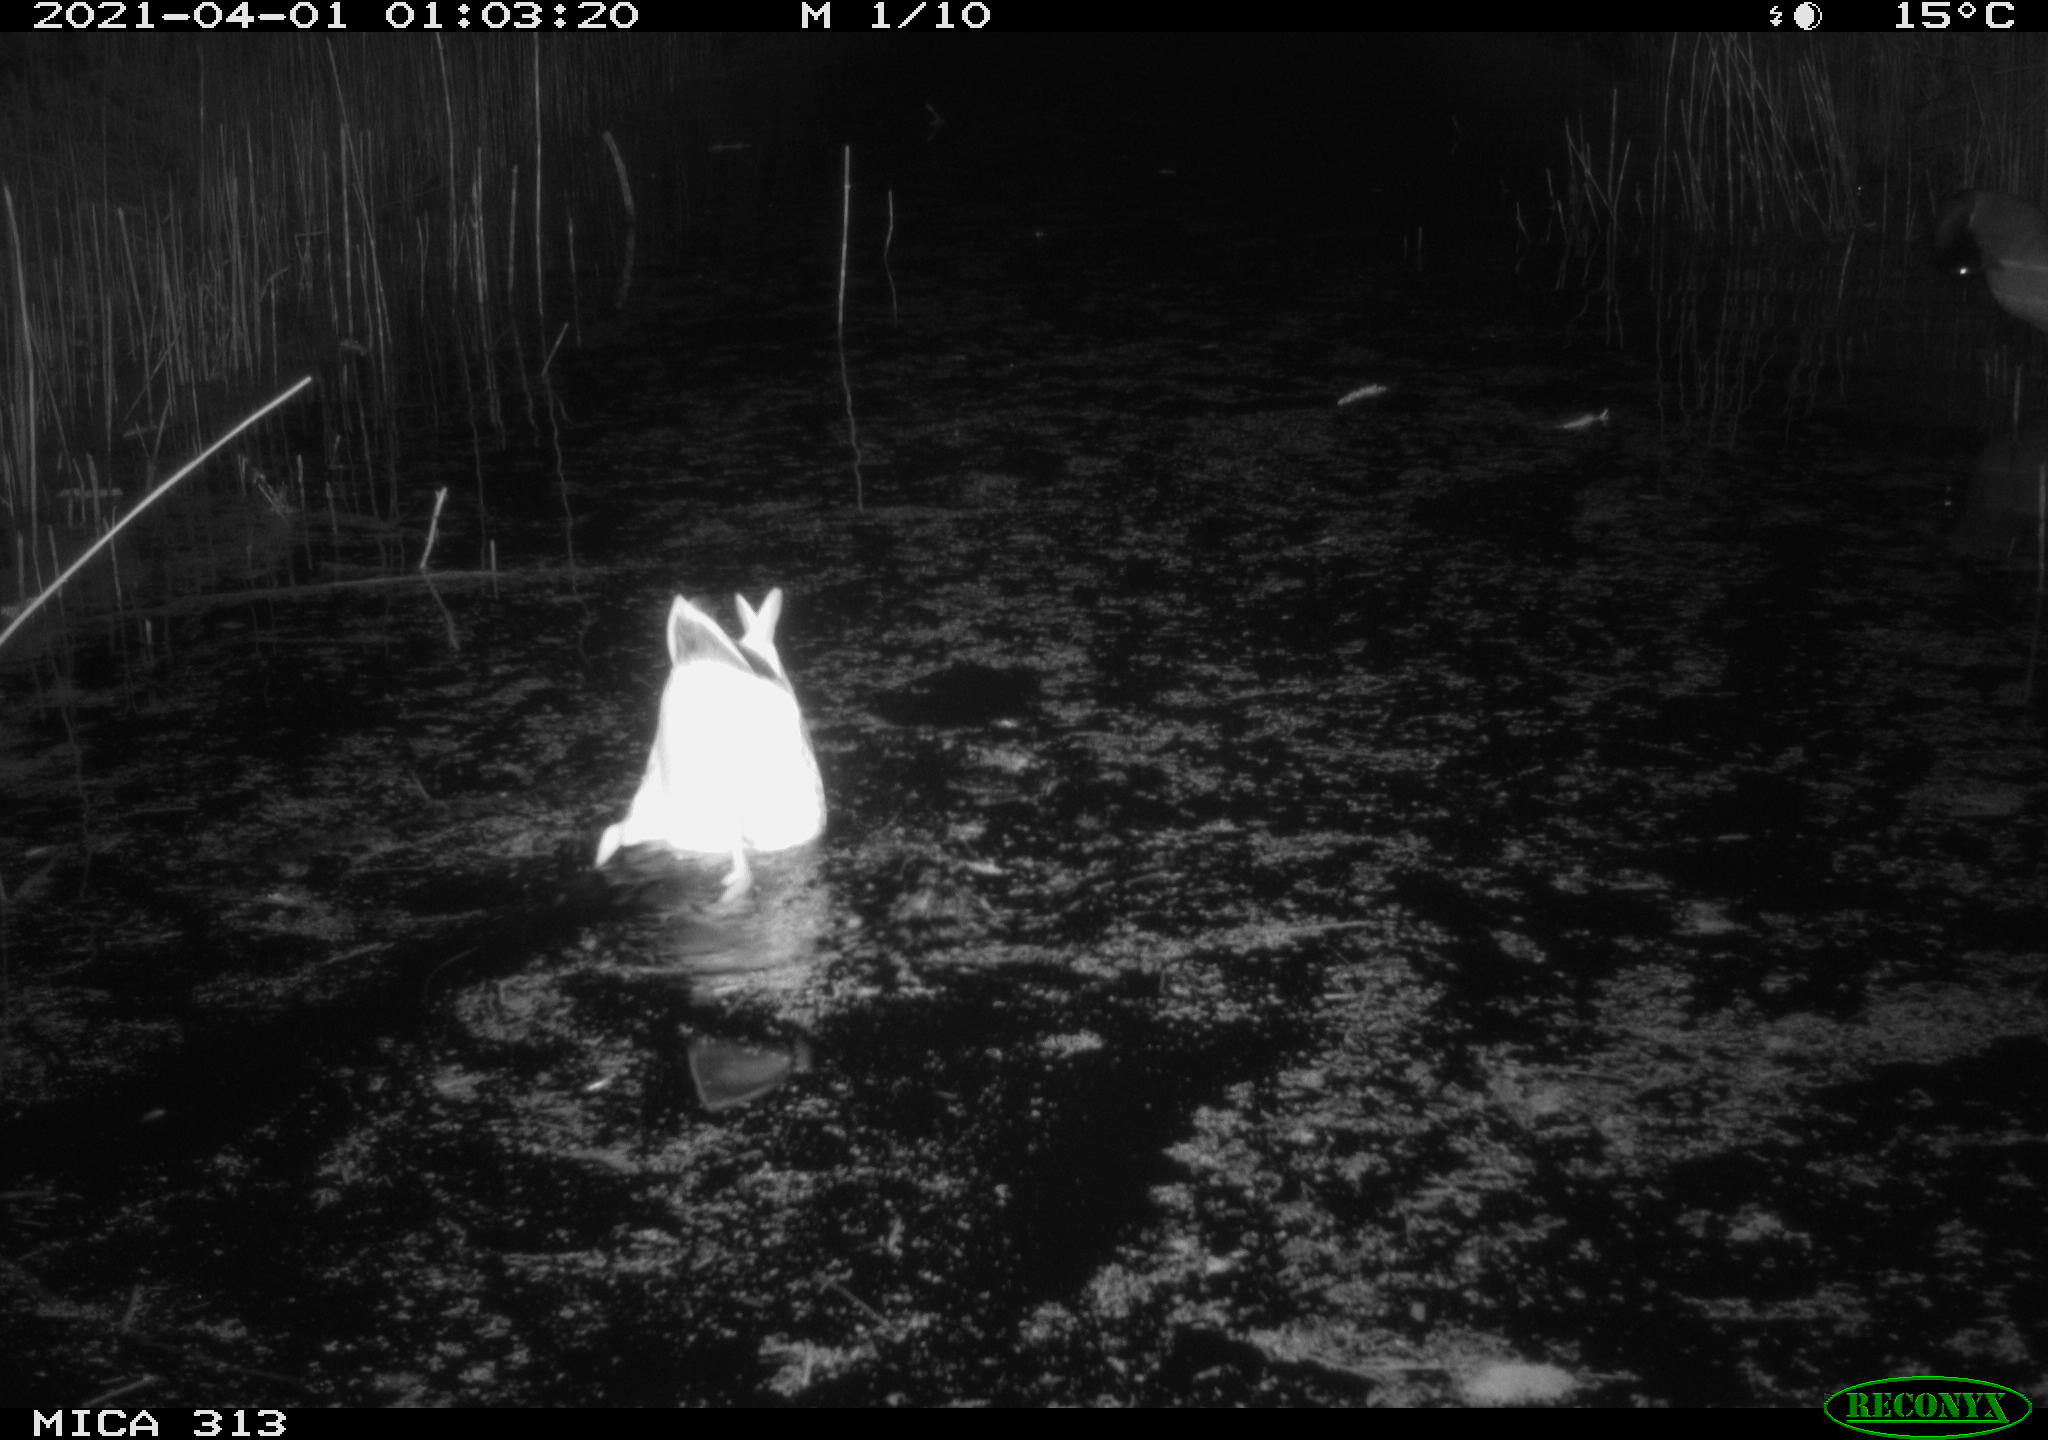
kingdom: Animalia
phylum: Chordata
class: Aves
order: Anseriformes
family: Anatidae
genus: Anas
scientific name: Anas platyrhynchos
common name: Mallard
